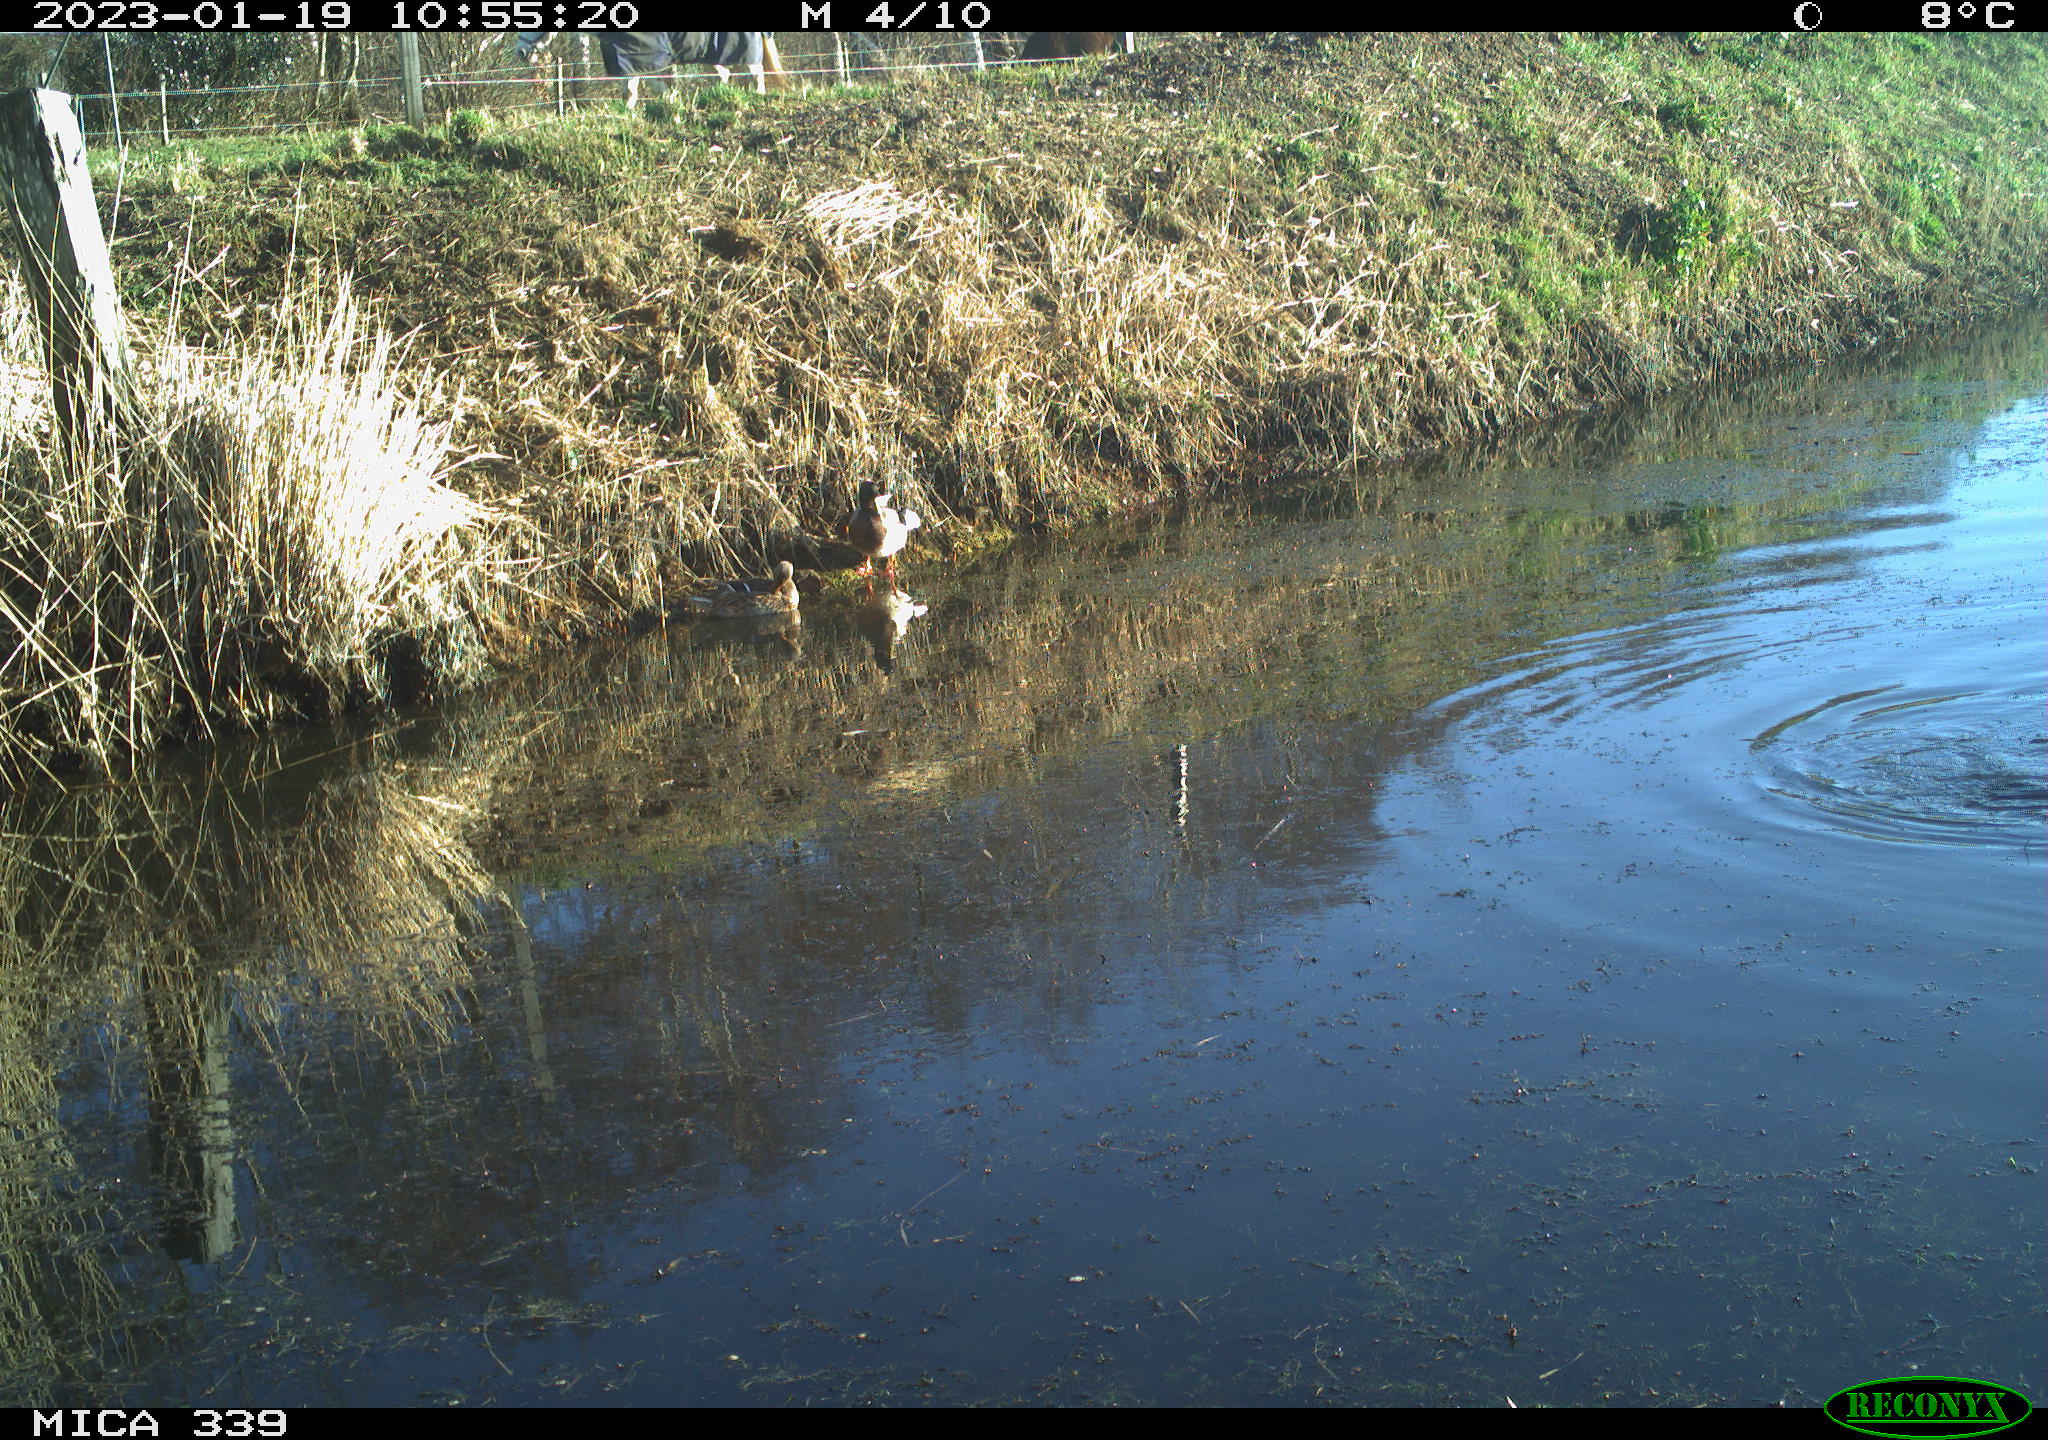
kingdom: Animalia
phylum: Chordata
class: Aves
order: Anseriformes
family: Anatidae
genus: Anas
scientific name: Anas
